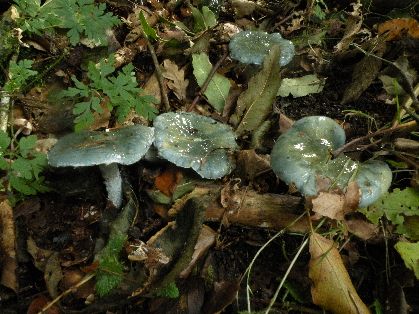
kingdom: Fungi
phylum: Basidiomycota
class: Agaricomycetes
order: Agaricales
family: Strophariaceae
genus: Stropharia
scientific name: Stropharia cyanea
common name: blågrøn bredblad
